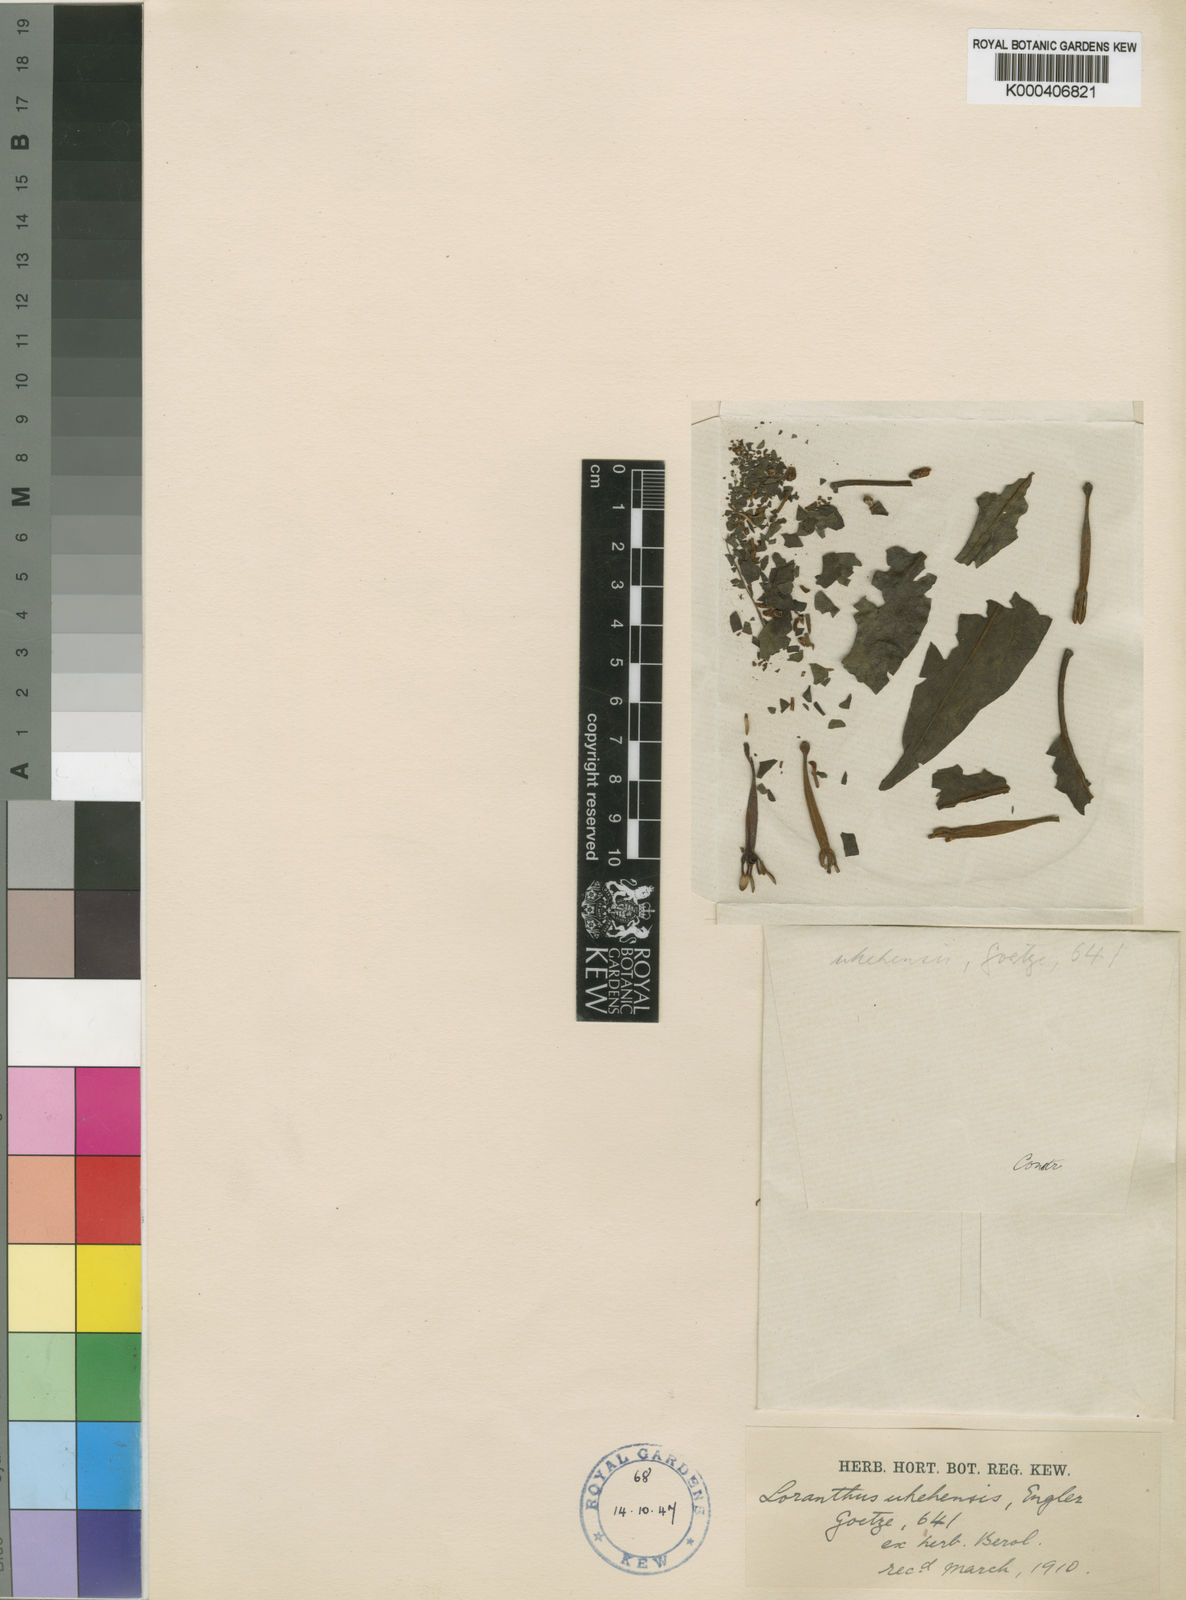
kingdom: Plantae
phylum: Tracheophyta
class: Magnoliopsida
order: Santalales
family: Loranthaceae
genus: Agelanthus
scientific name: Agelanthus uhehensis
